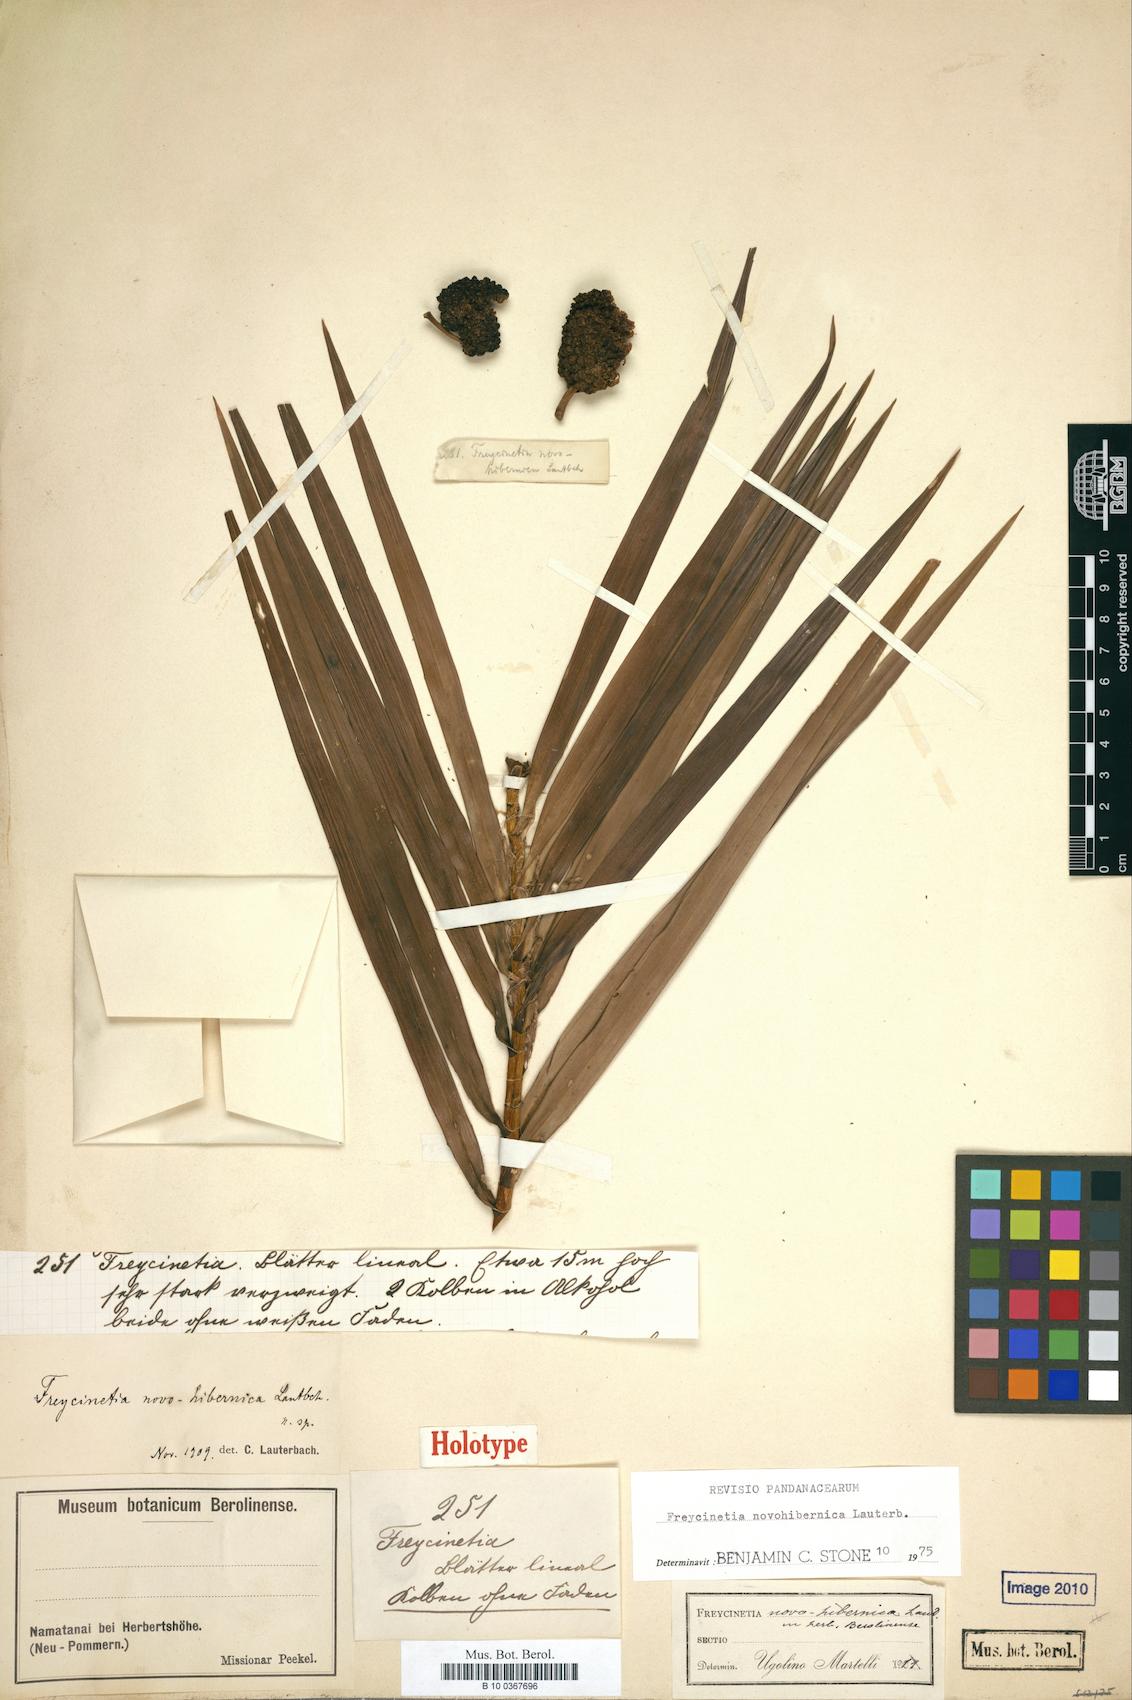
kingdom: Plantae
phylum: Tracheophyta
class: Liliopsida
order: Pandanales
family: Pandanaceae
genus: Freycinetia
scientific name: Freycinetia novohibernica
